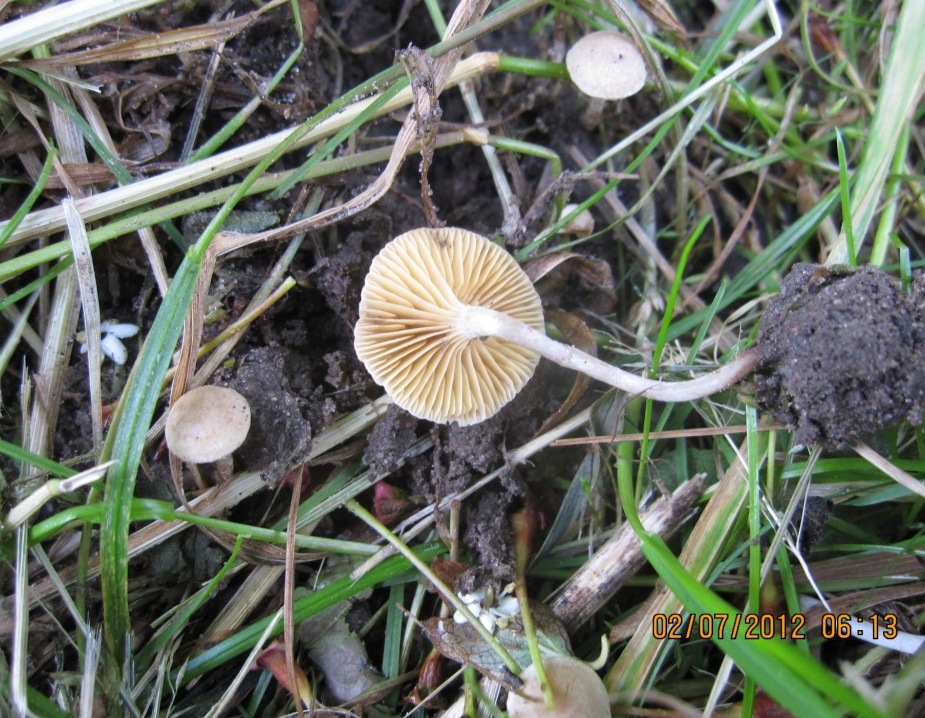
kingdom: Fungi
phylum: Basidiomycota
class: Agaricomycetes
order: Agaricales
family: Tubariaceae
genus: Tubaria
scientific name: Tubaria dispersa
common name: tjørne-fnughat
